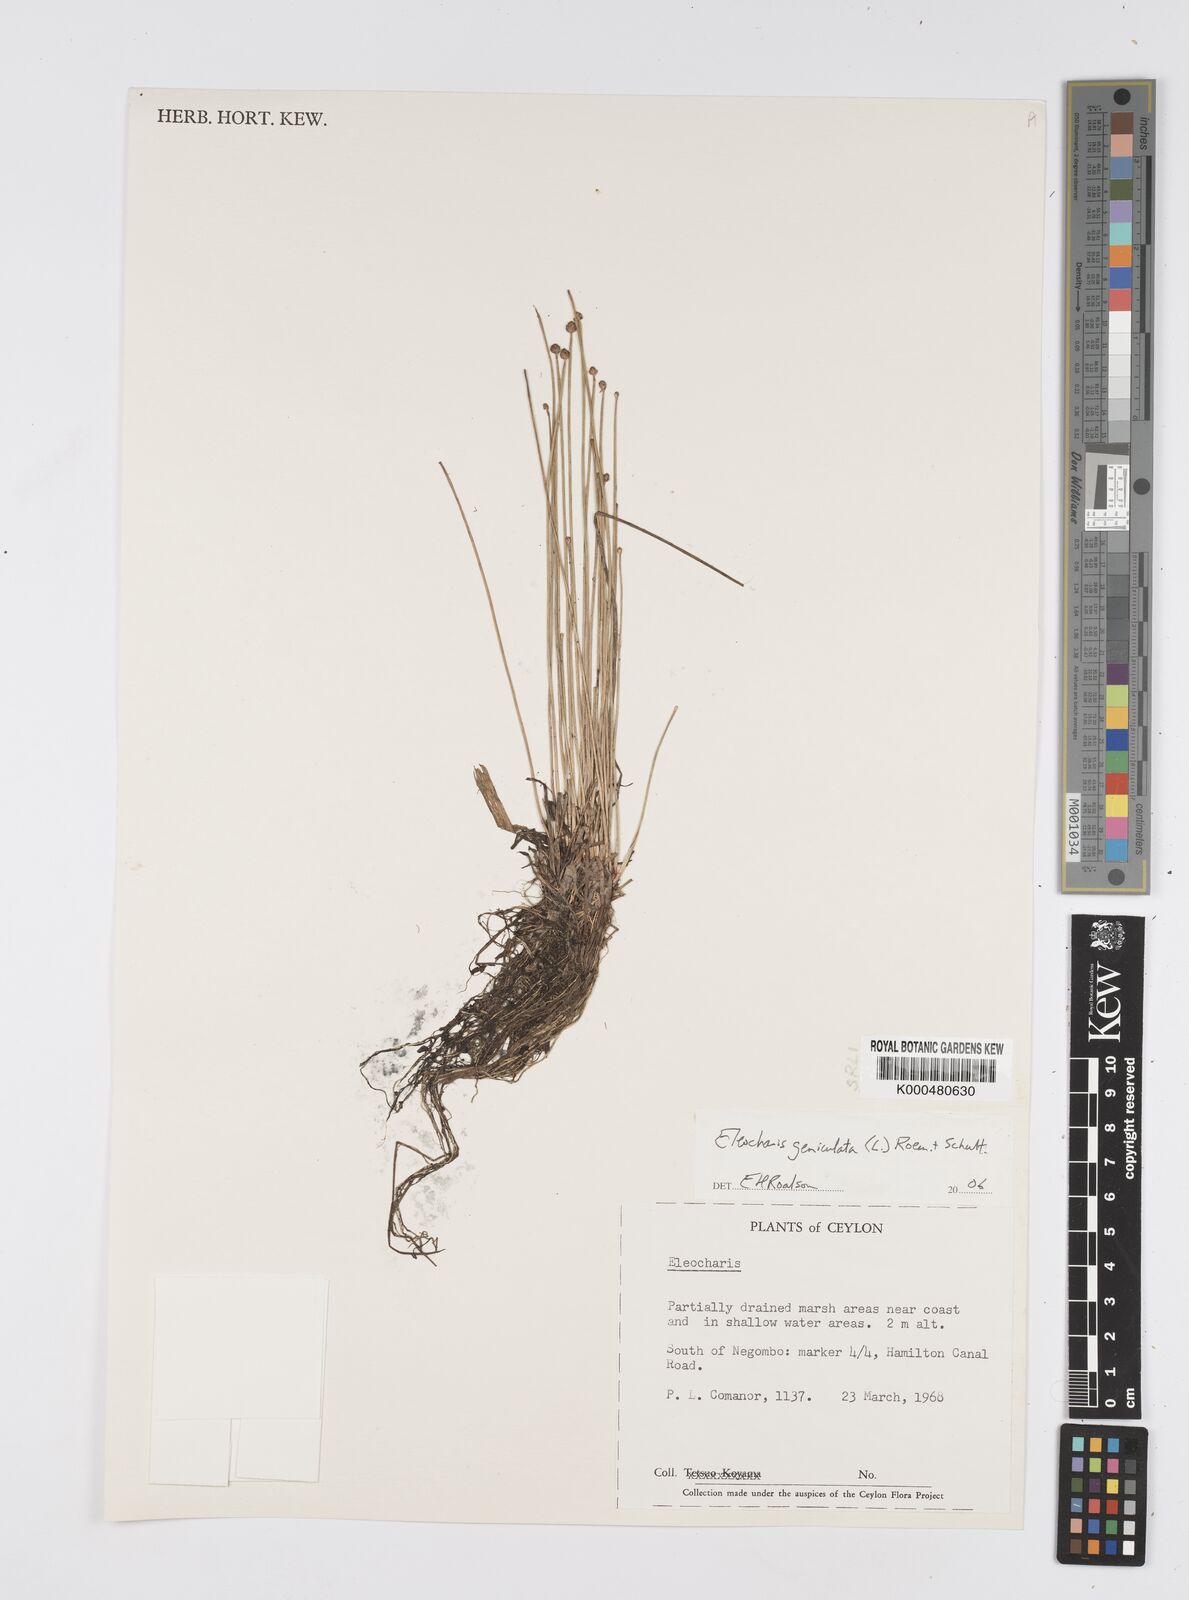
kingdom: Plantae
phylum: Tracheophyta
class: Liliopsida
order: Poales
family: Cyperaceae
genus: Eleocharis
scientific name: Eleocharis geniculata
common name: Canada spikesedge
